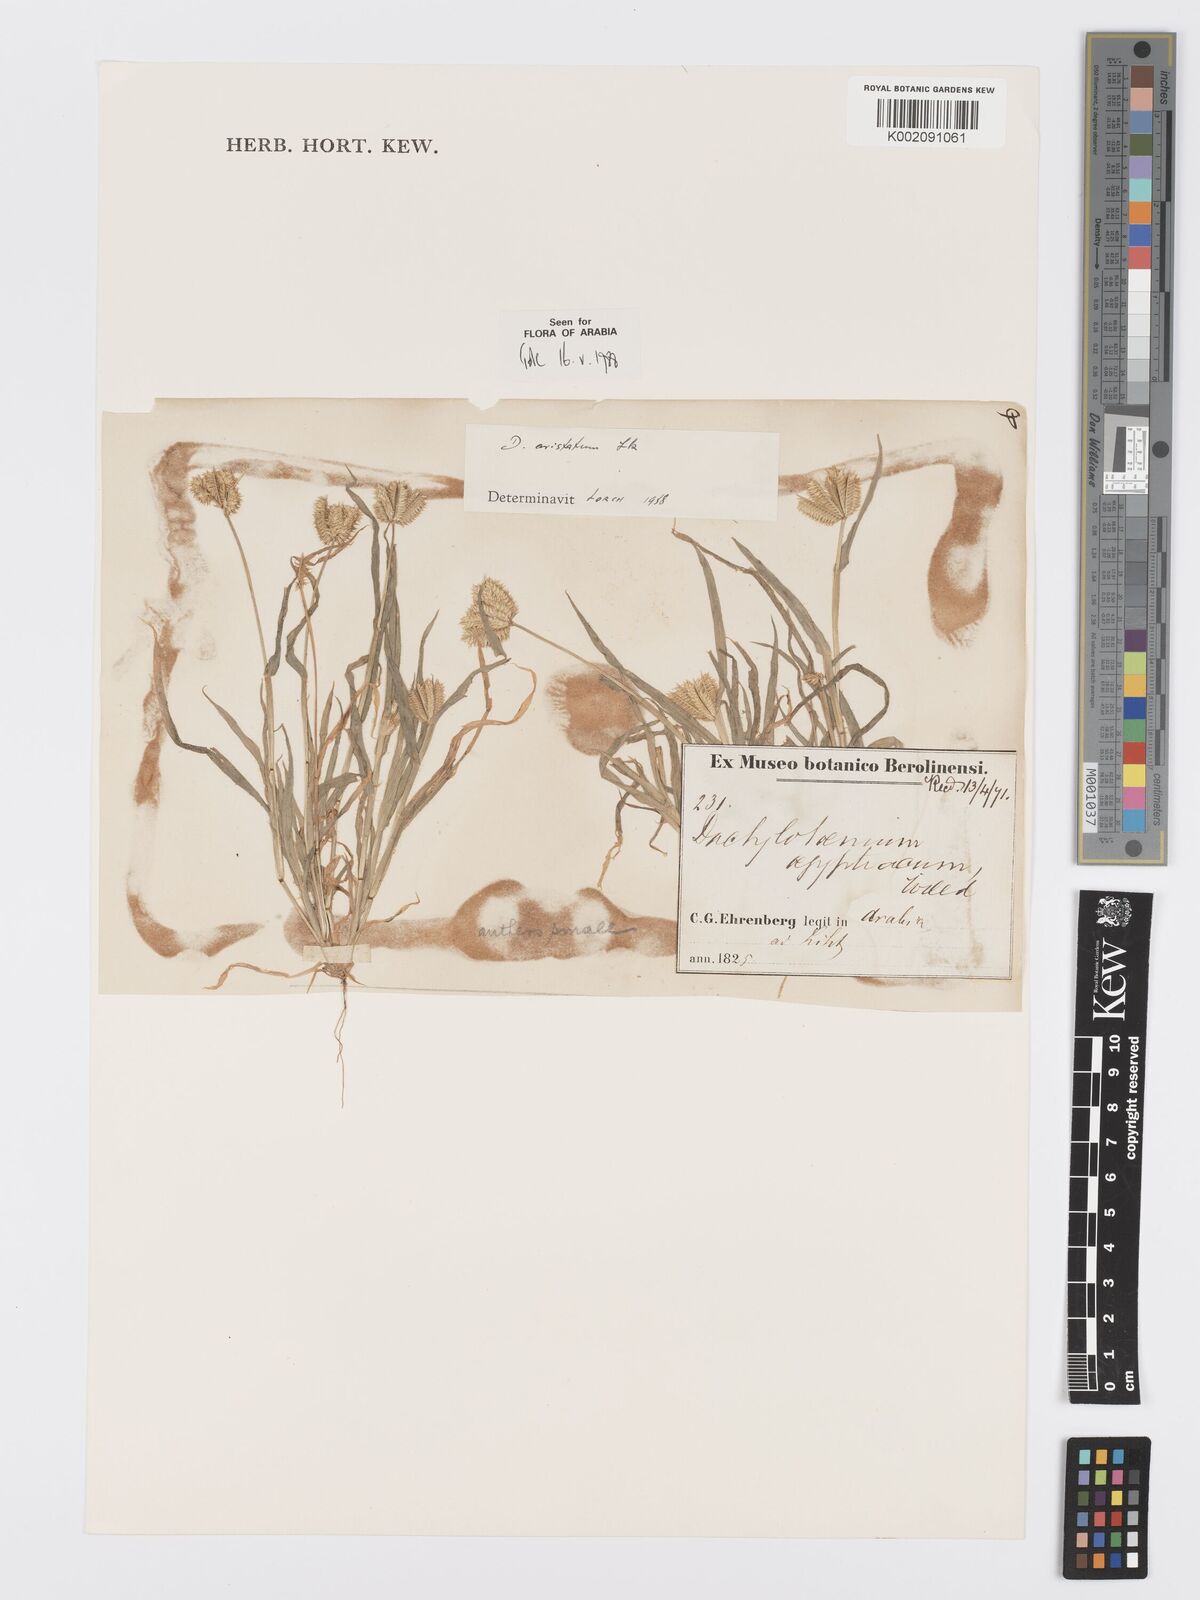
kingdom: Plantae
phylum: Tracheophyta
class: Liliopsida
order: Poales
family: Poaceae
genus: Dactyloctenium
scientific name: Dactyloctenium aristatum
